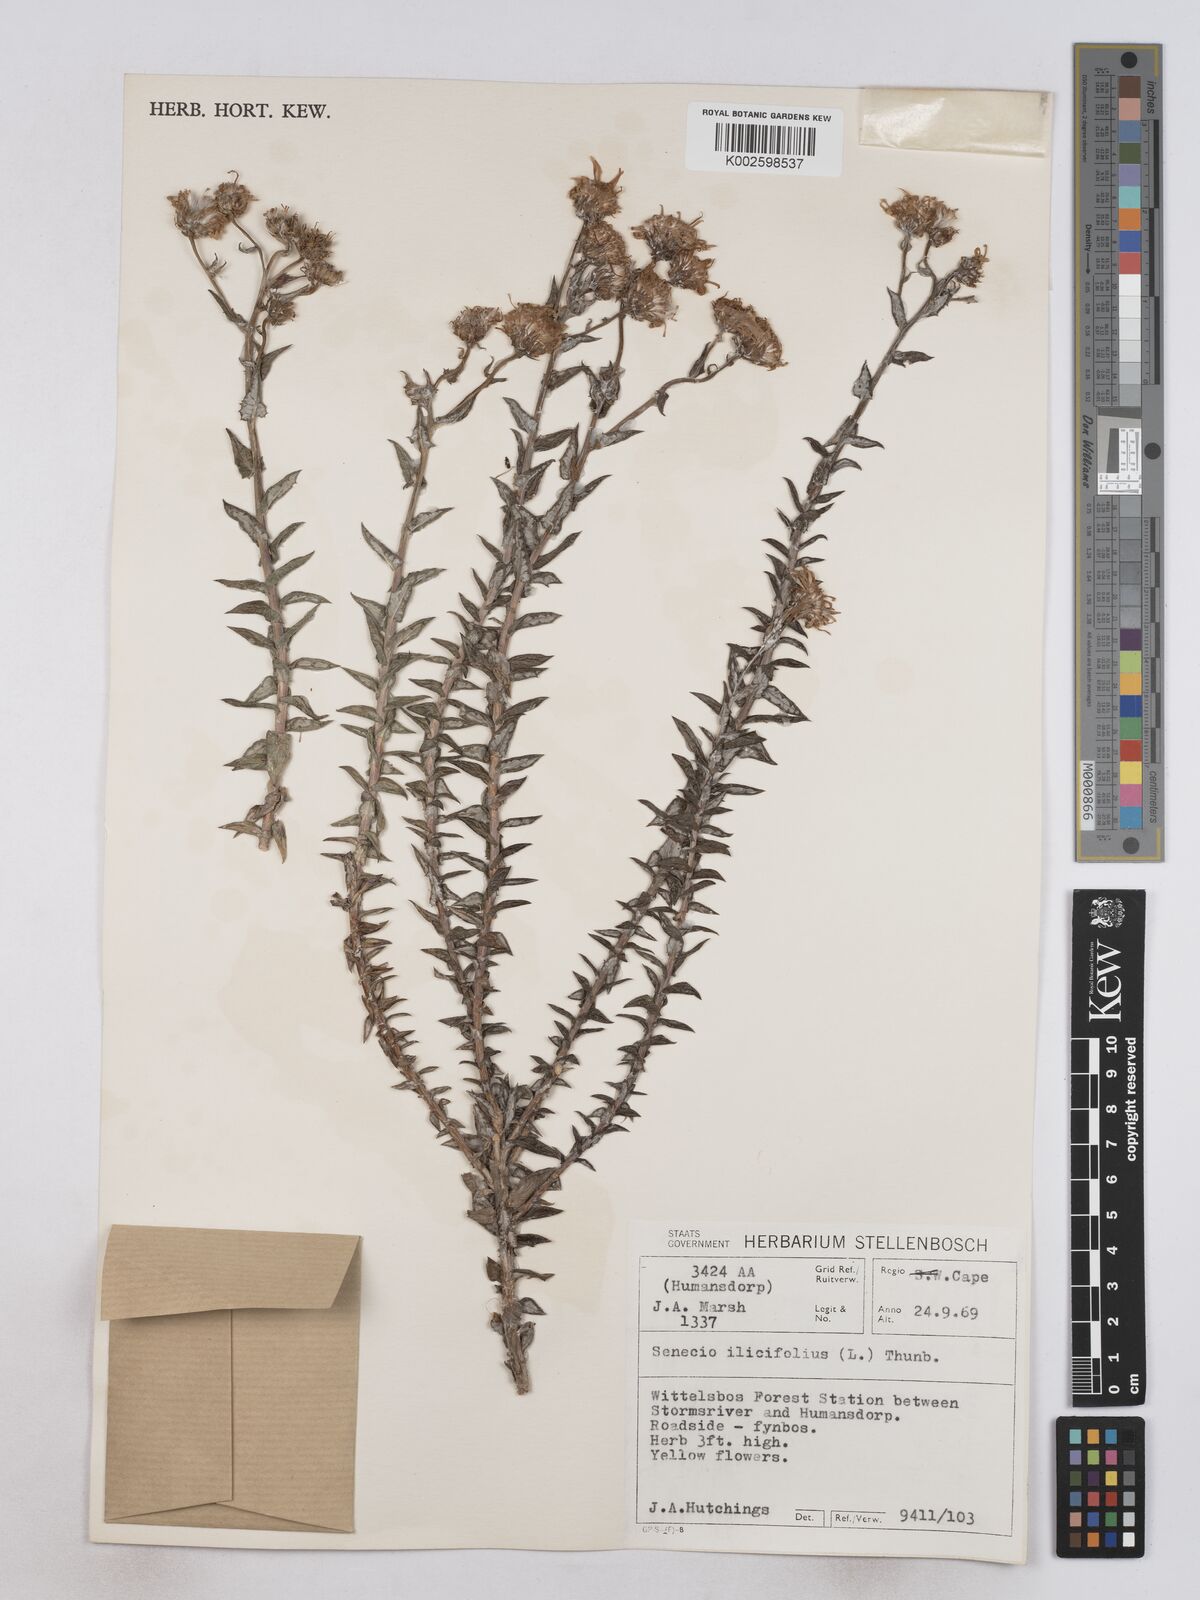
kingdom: Plantae
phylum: Tracheophyta
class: Magnoliopsida
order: Asterales
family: Asteraceae
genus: Senecio
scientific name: Senecio ilicifolius
